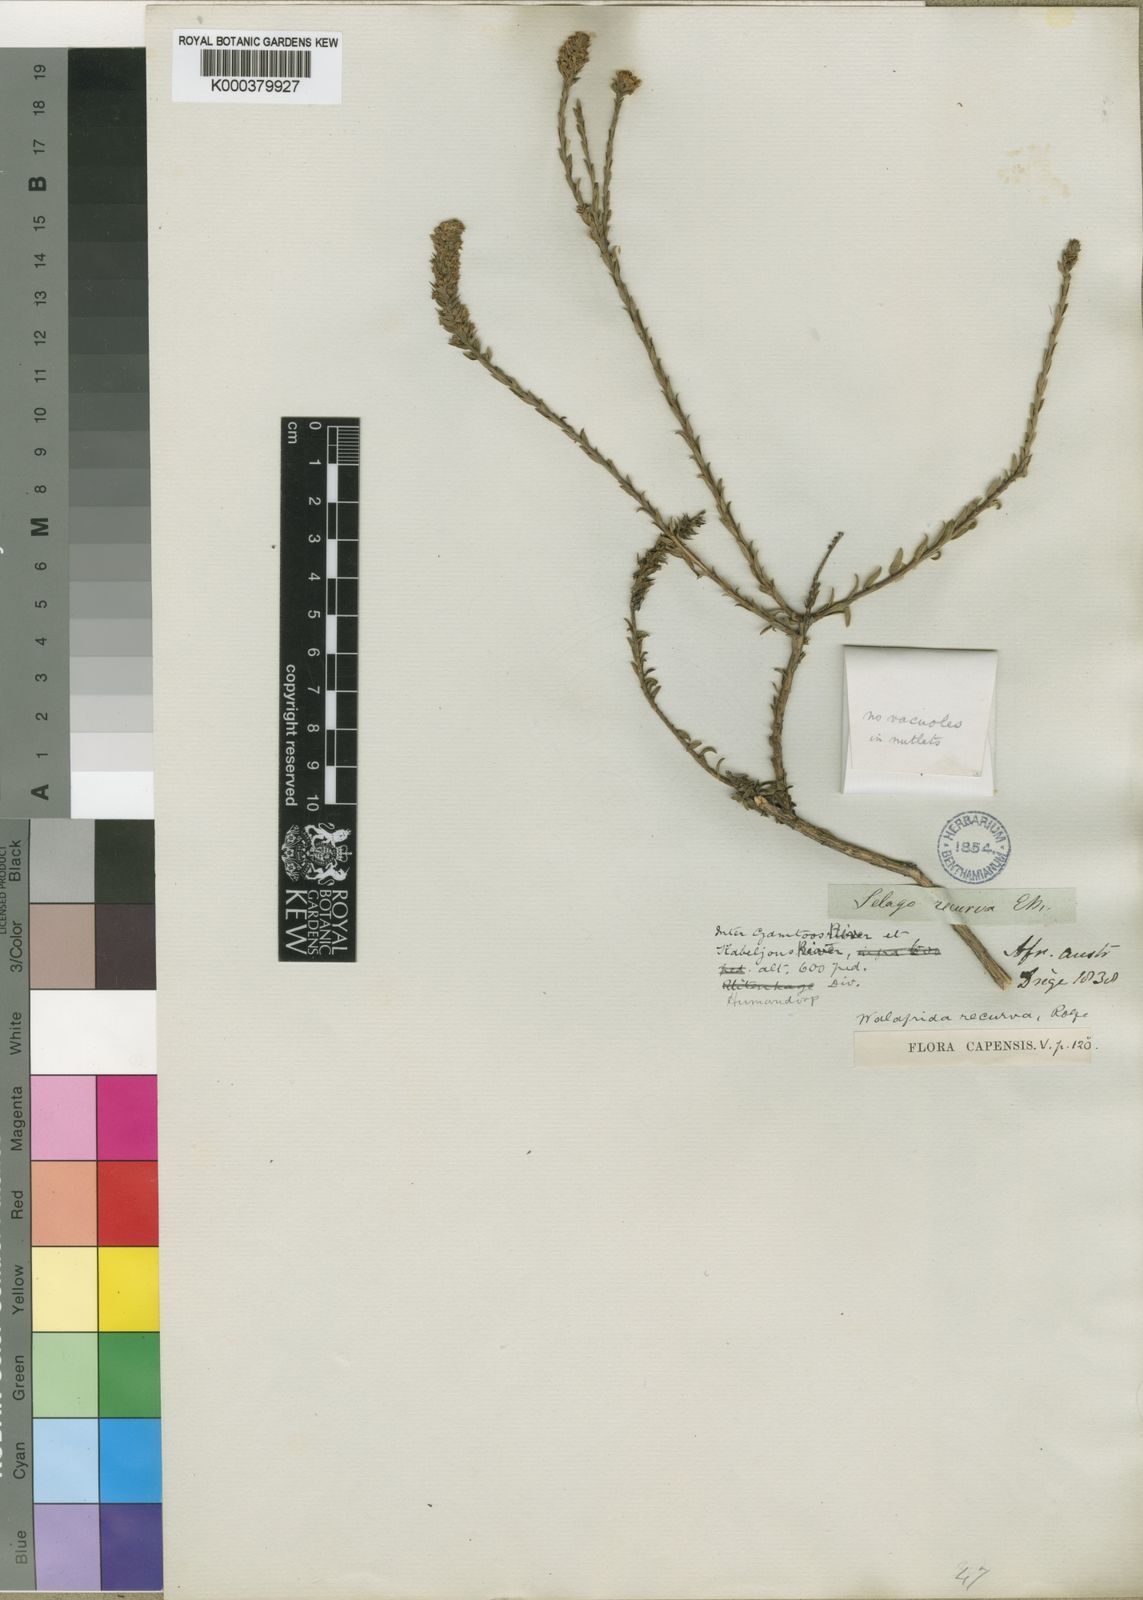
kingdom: Plantae
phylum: Tracheophyta
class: Magnoliopsida
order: Lamiales
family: Scrophulariaceae
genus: Selago
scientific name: Selago recurva
